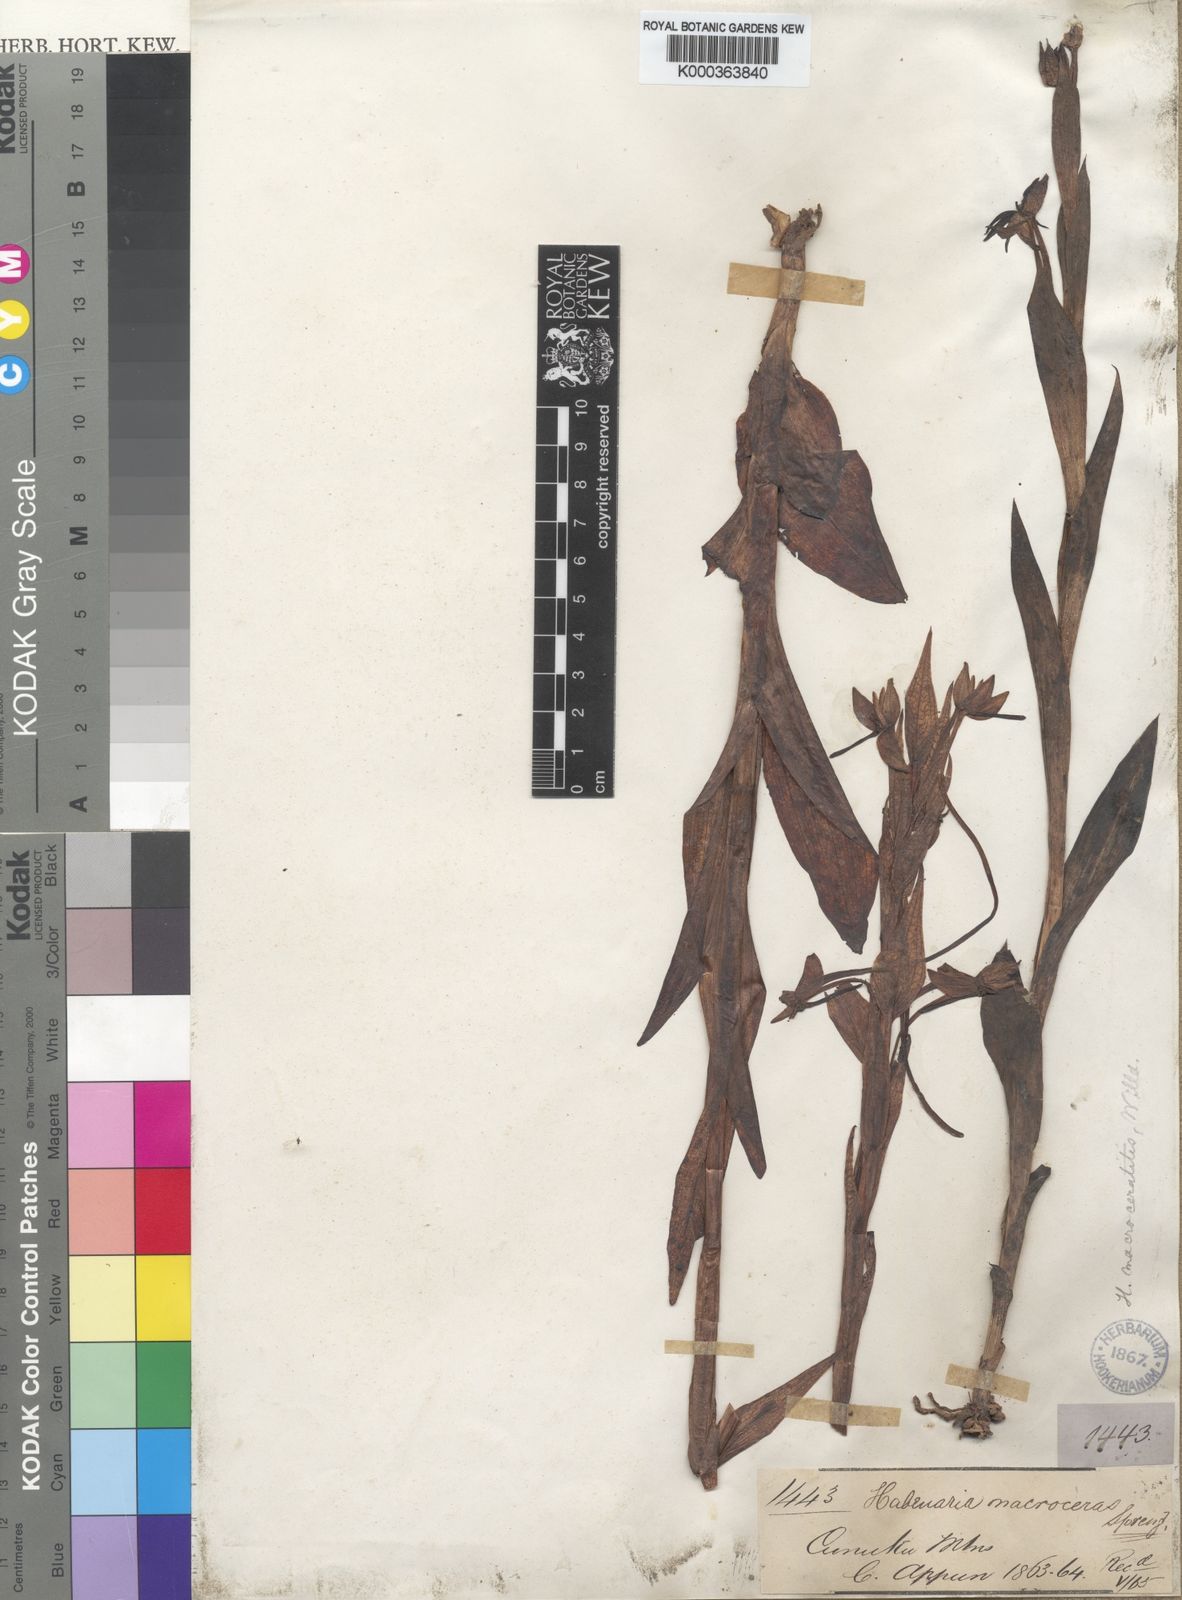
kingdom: Plantae
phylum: Tracheophyta
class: Liliopsida
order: Asparagales
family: Orchidaceae
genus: Habenaria
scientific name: Habenaria
